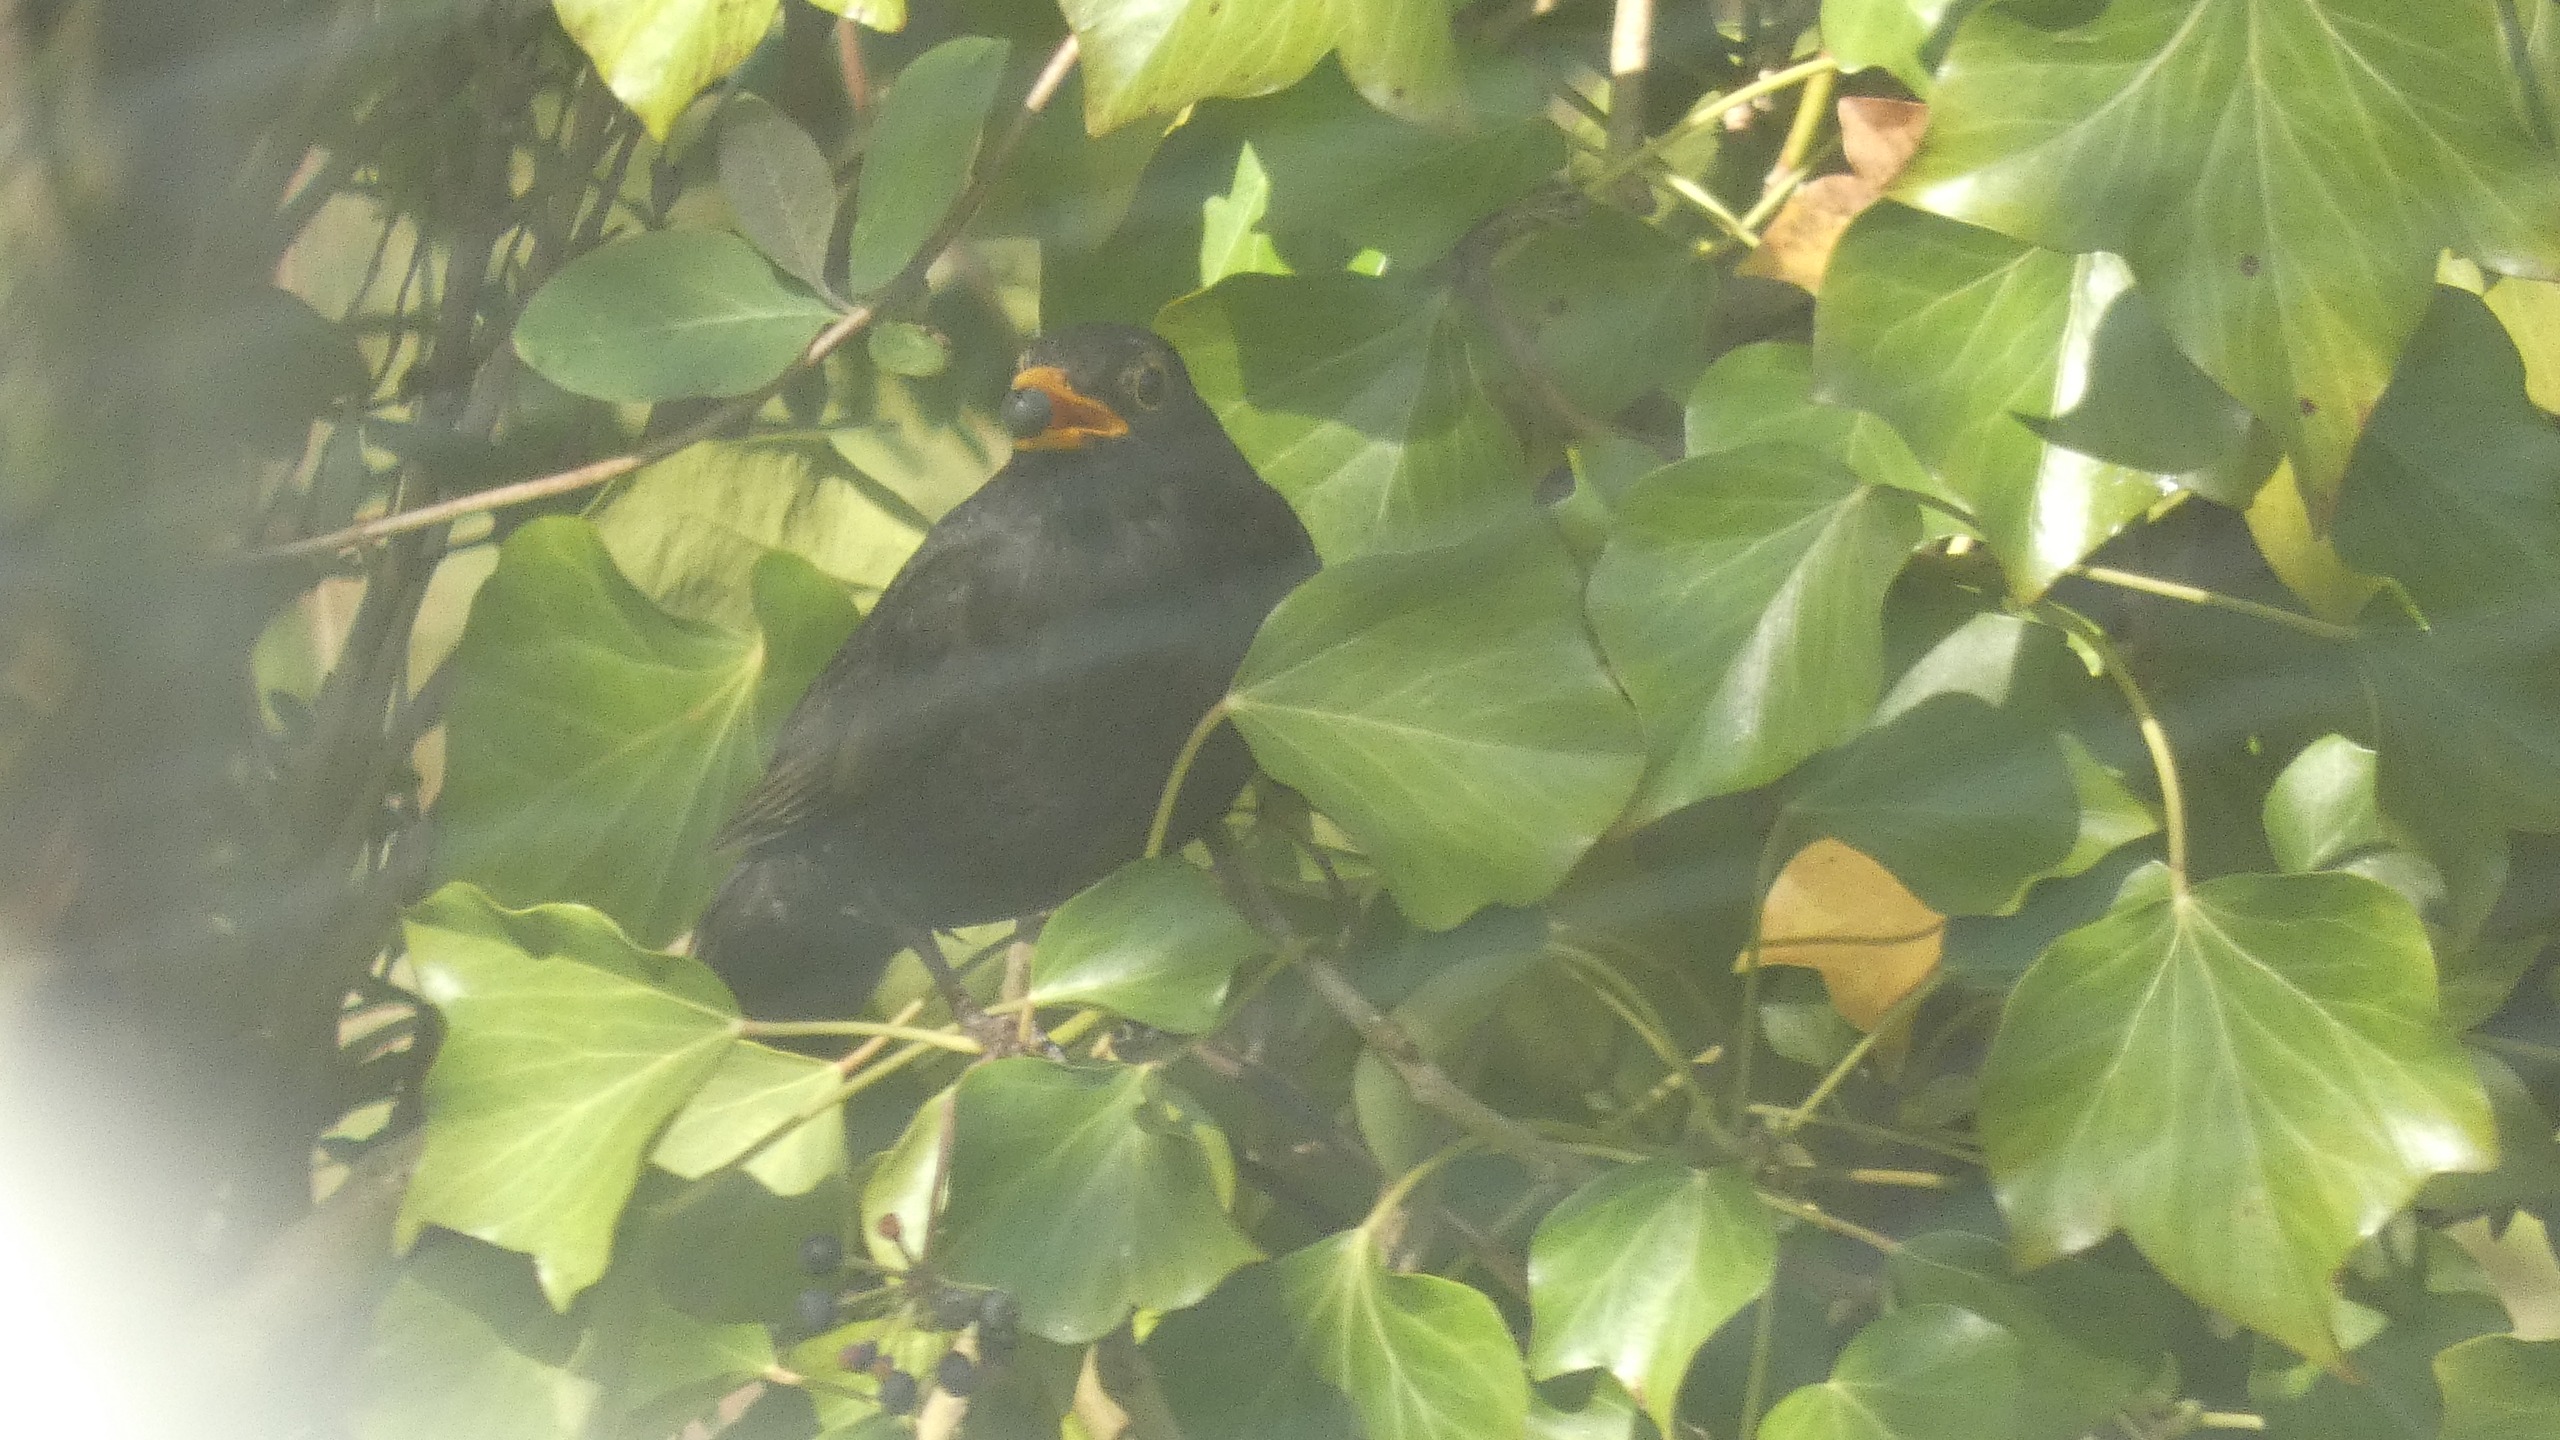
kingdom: Animalia
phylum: Chordata
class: Aves
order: Passeriformes
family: Turdidae
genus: Turdus
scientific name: Turdus merula
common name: Solsort
